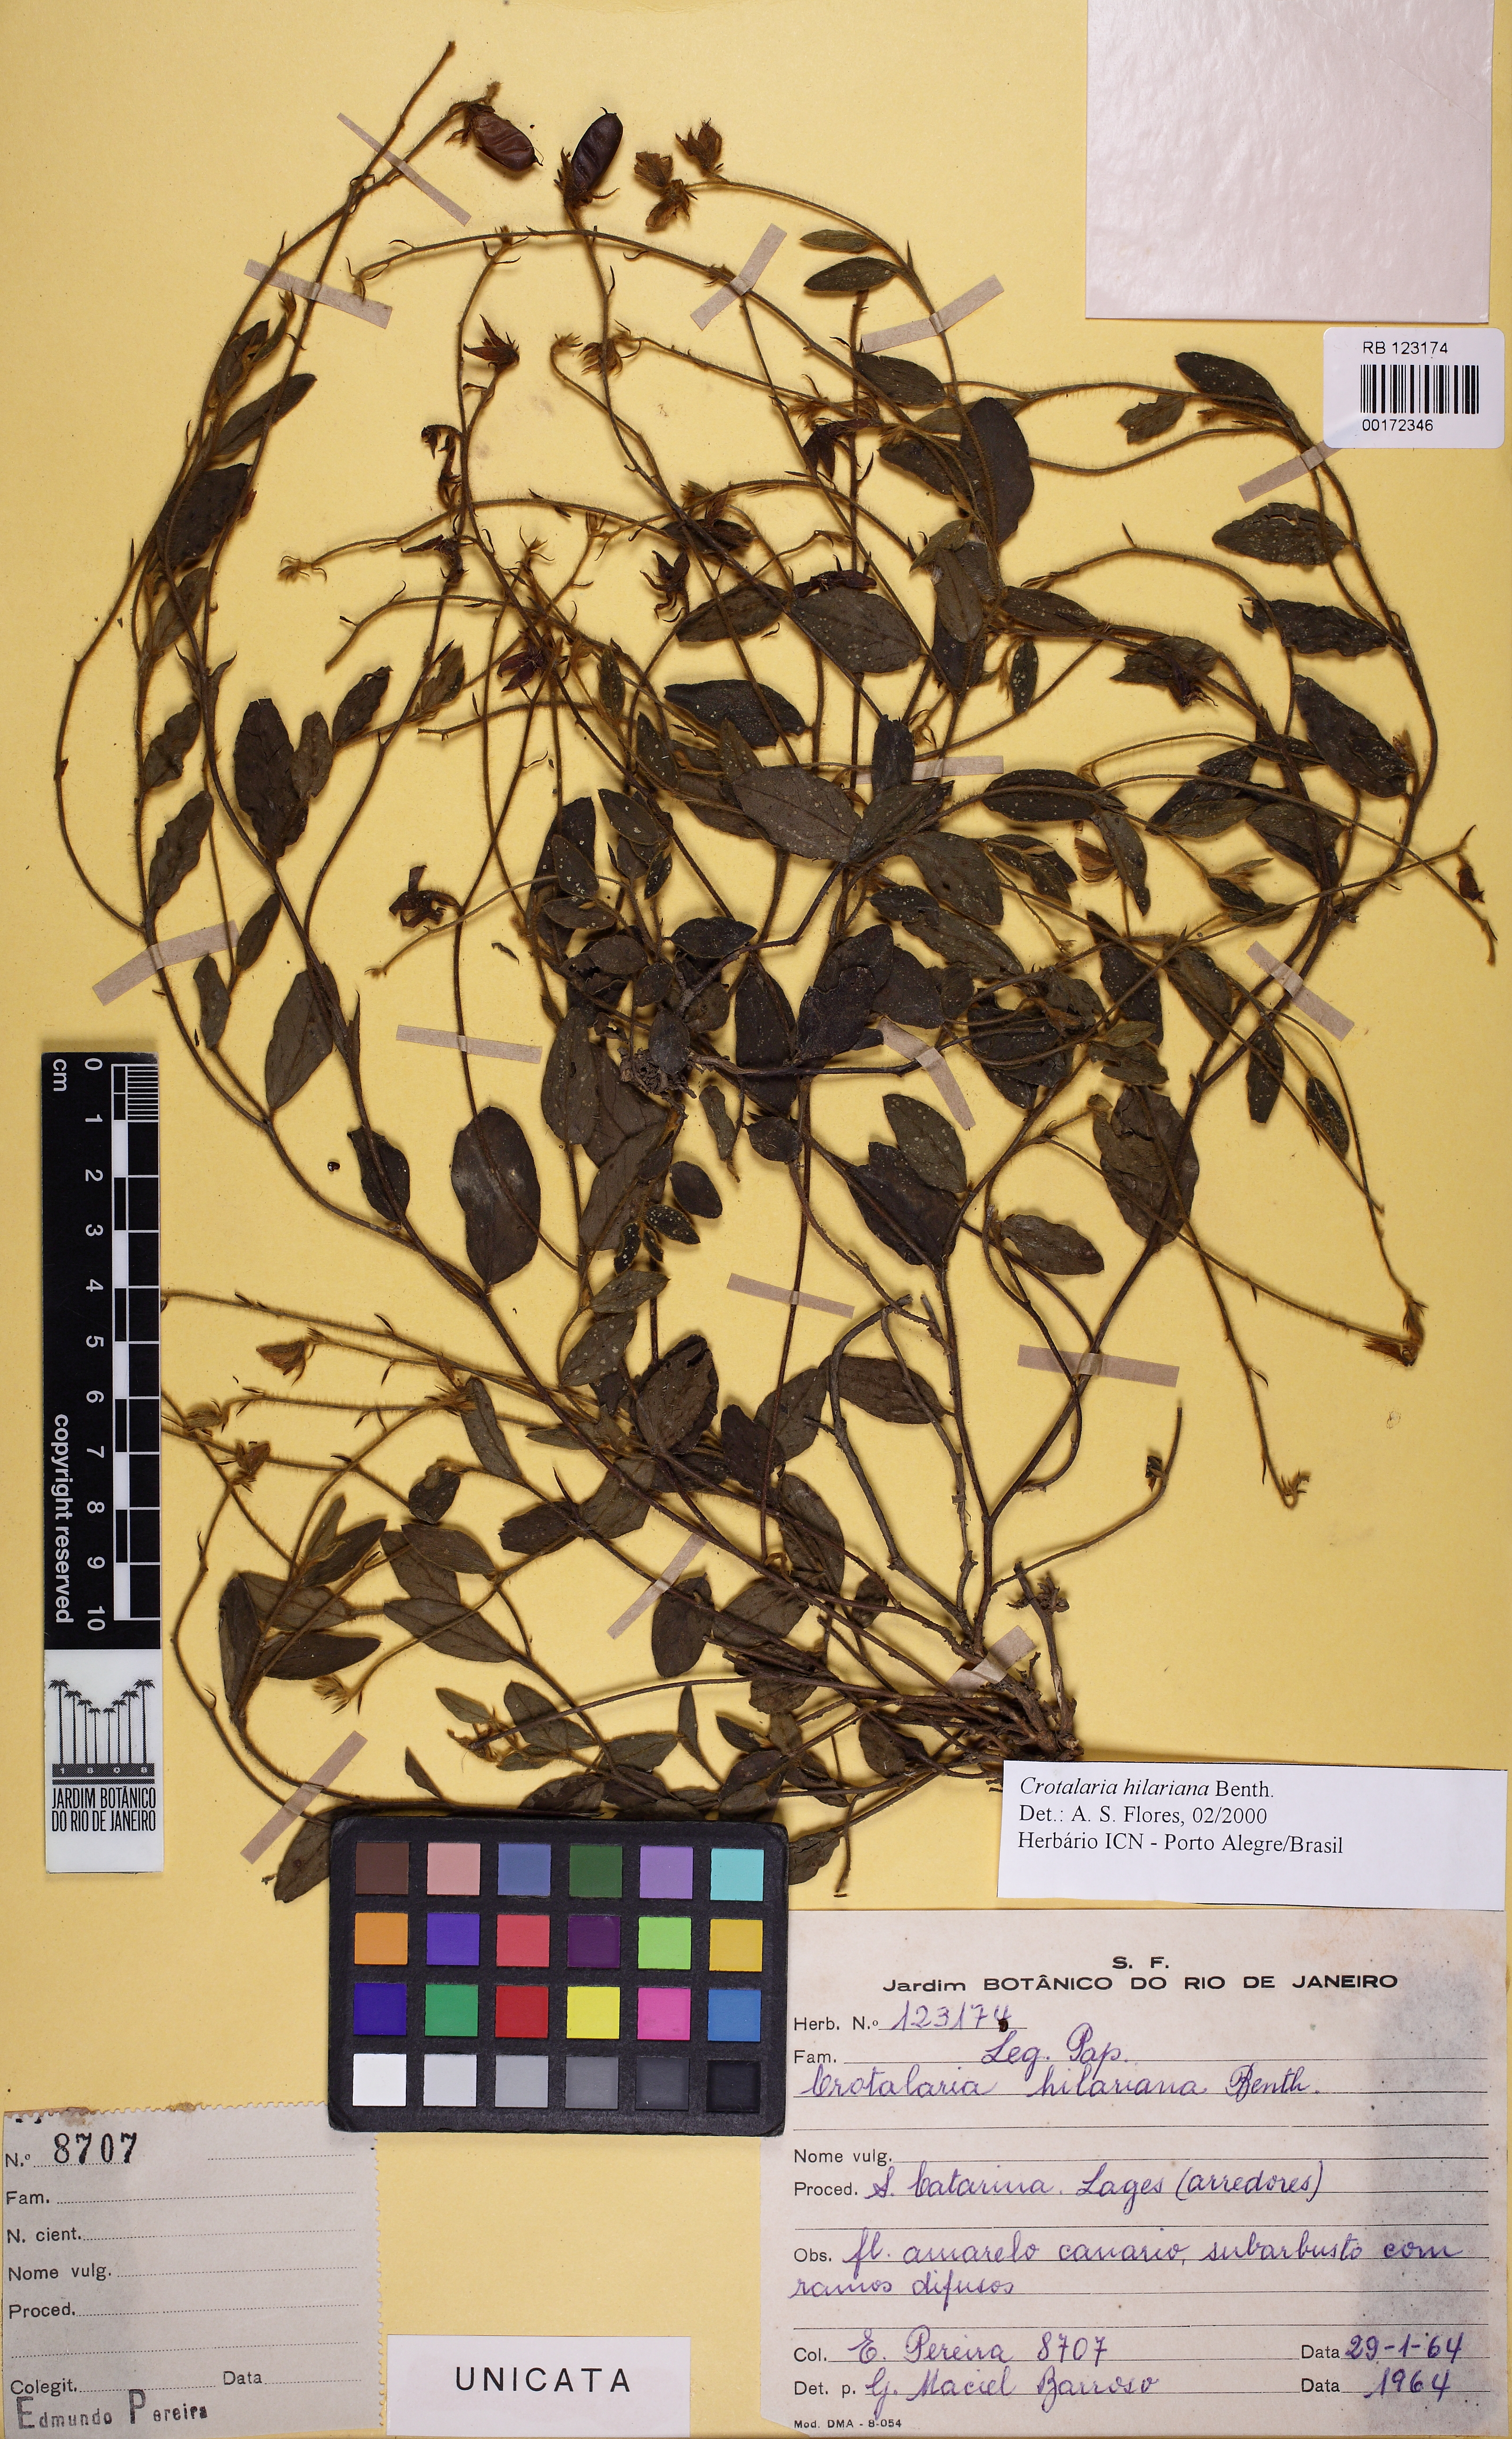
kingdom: Plantae
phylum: Tracheophyta
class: Magnoliopsida
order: Fabales
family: Fabaceae
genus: Crotalaria
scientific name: Crotalaria hilariana
